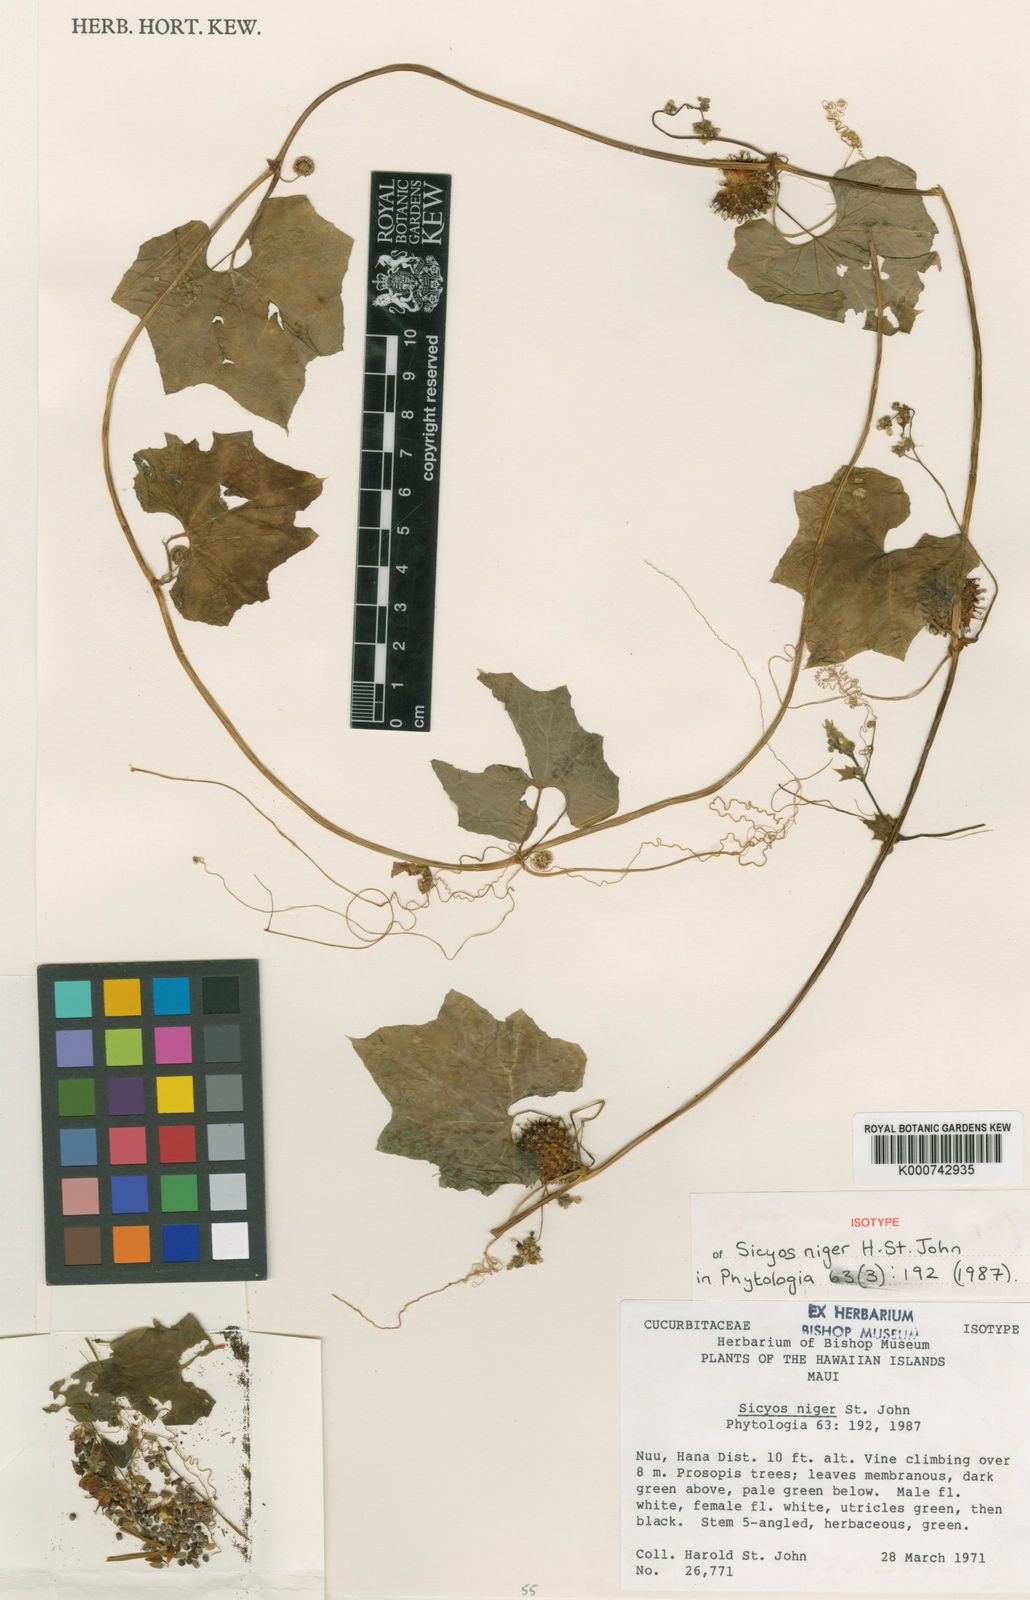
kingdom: Plantae
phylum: Tracheophyta
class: Magnoliopsida
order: Cucurbitales
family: Cucurbitaceae
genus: Sicyos
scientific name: Sicyos pachycarpa
